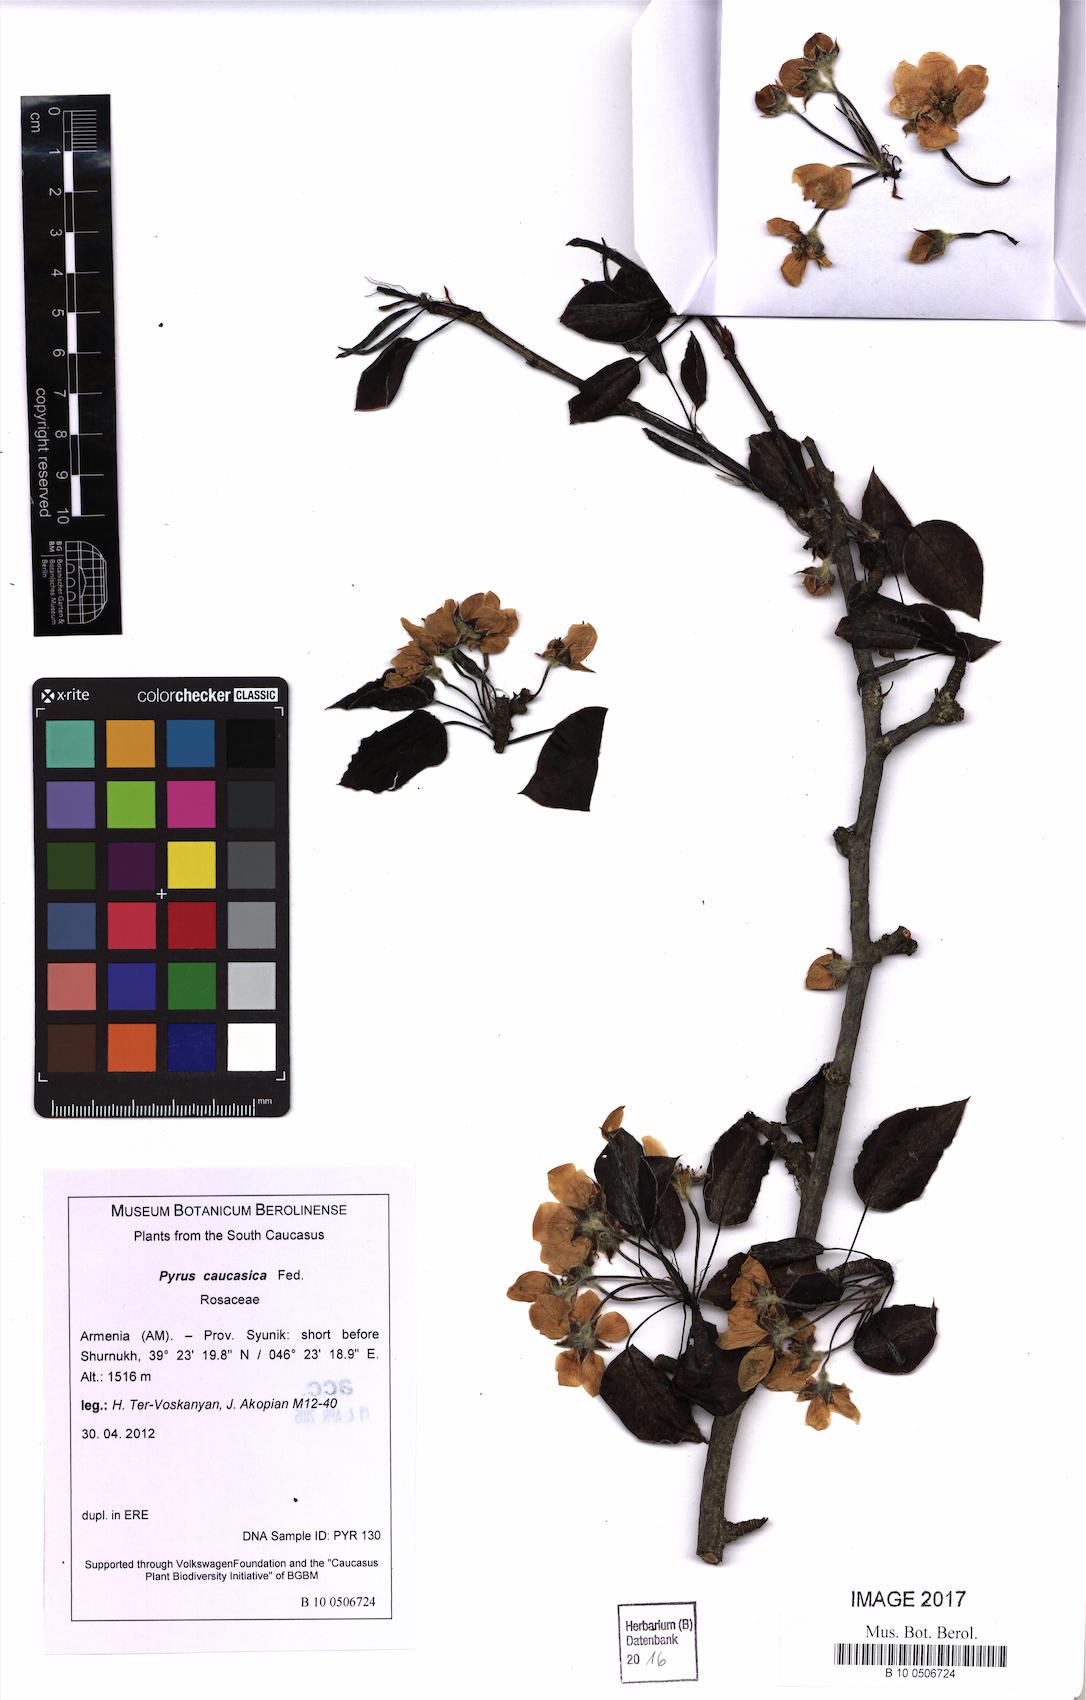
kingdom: Plantae
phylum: Tracheophyta
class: Magnoliopsida
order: Rosales
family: Rosaceae
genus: Pyrus
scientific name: Pyrus communis
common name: Pear
